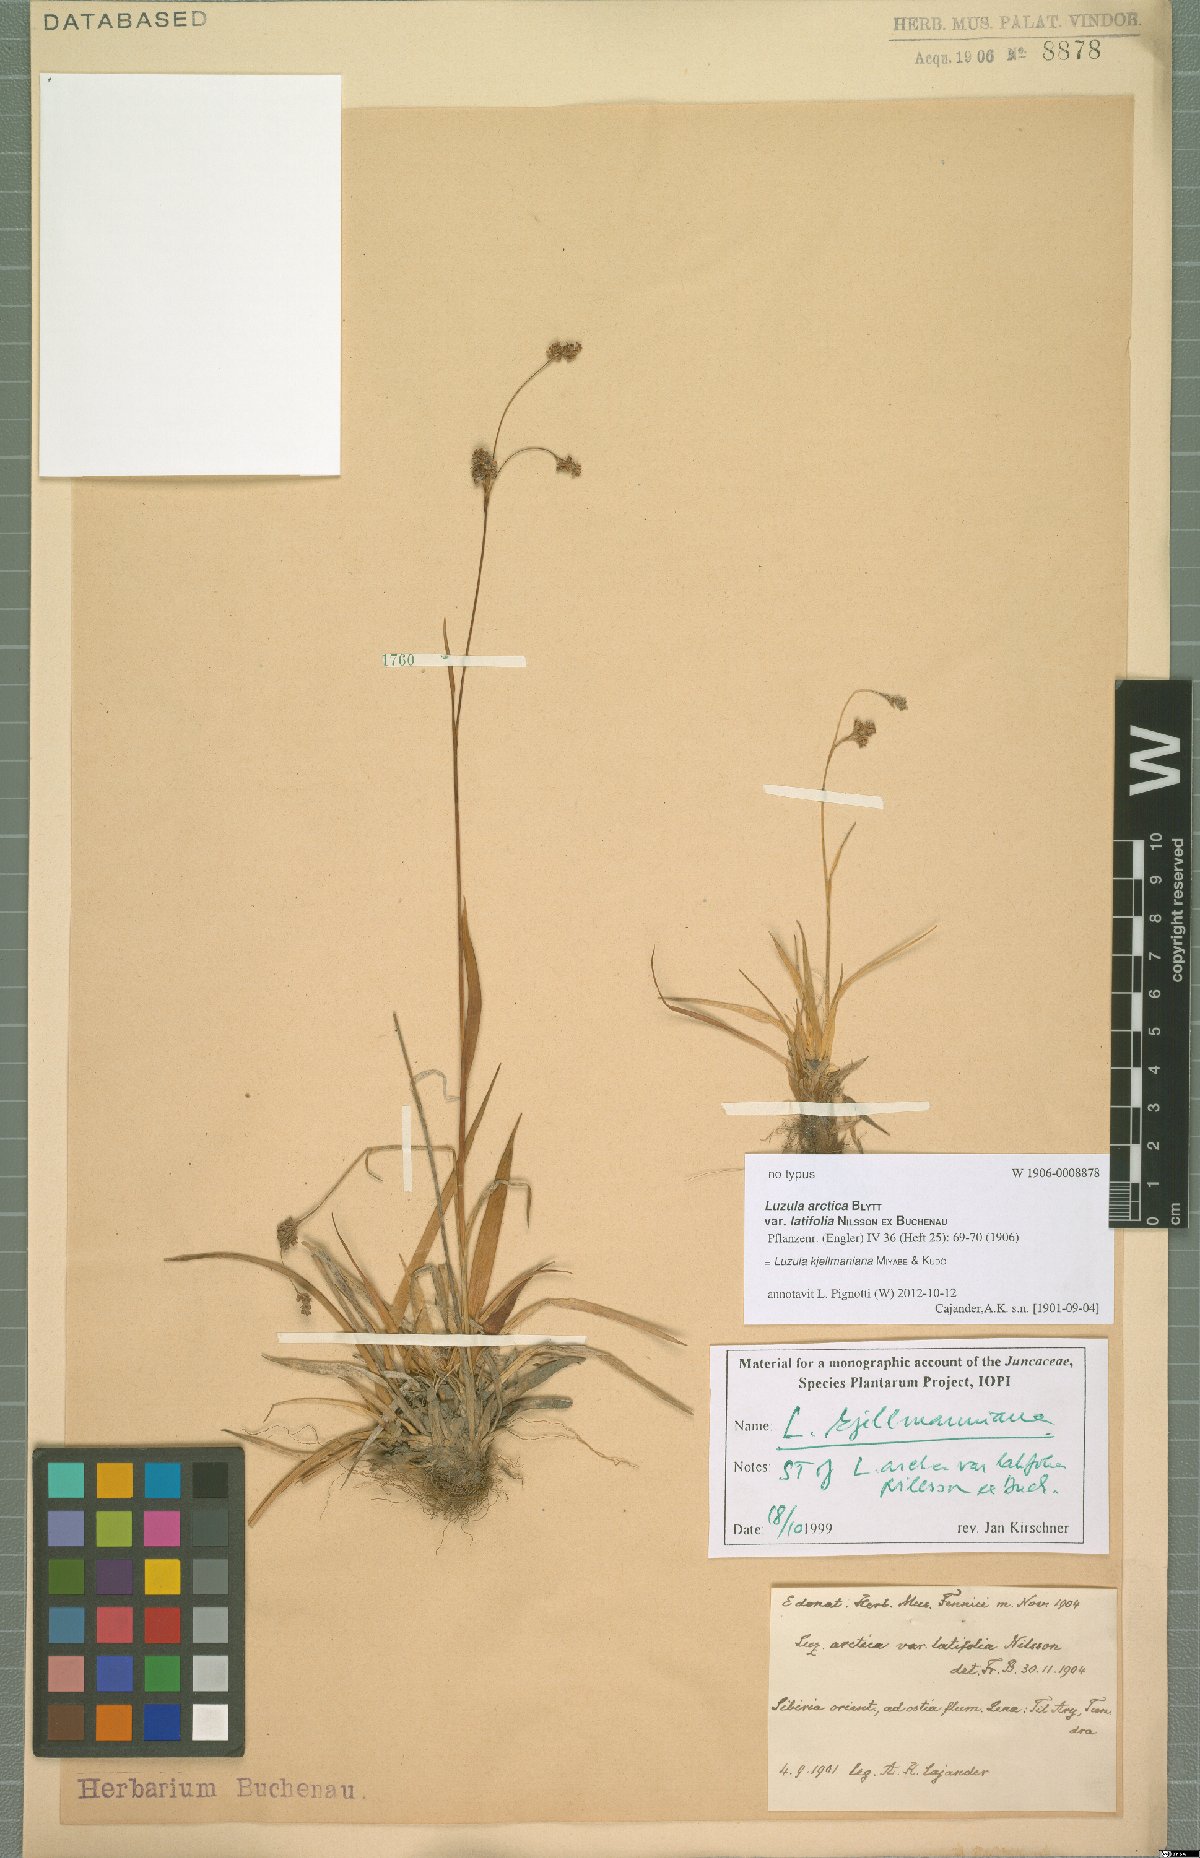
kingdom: Plantae
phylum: Tracheophyta
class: Liliopsida
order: Poales
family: Juncaceae
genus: Luzula
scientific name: Luzula kjellmaniana
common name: Kjellman's woodrush
